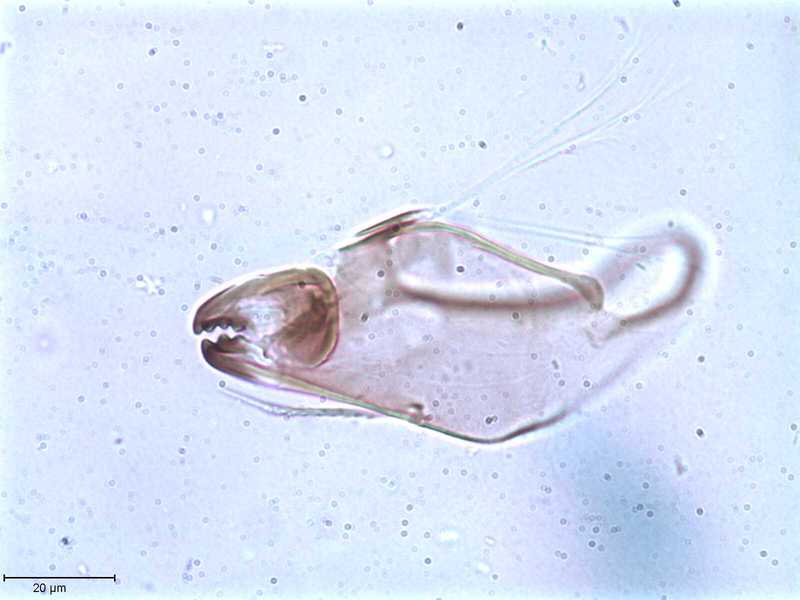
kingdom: Animalia
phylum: Arthropoda
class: Arachnida
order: Sarcoptiformes
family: Tegoribatidae
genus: Plakoribates
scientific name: Plakoribates multicuspidatus
